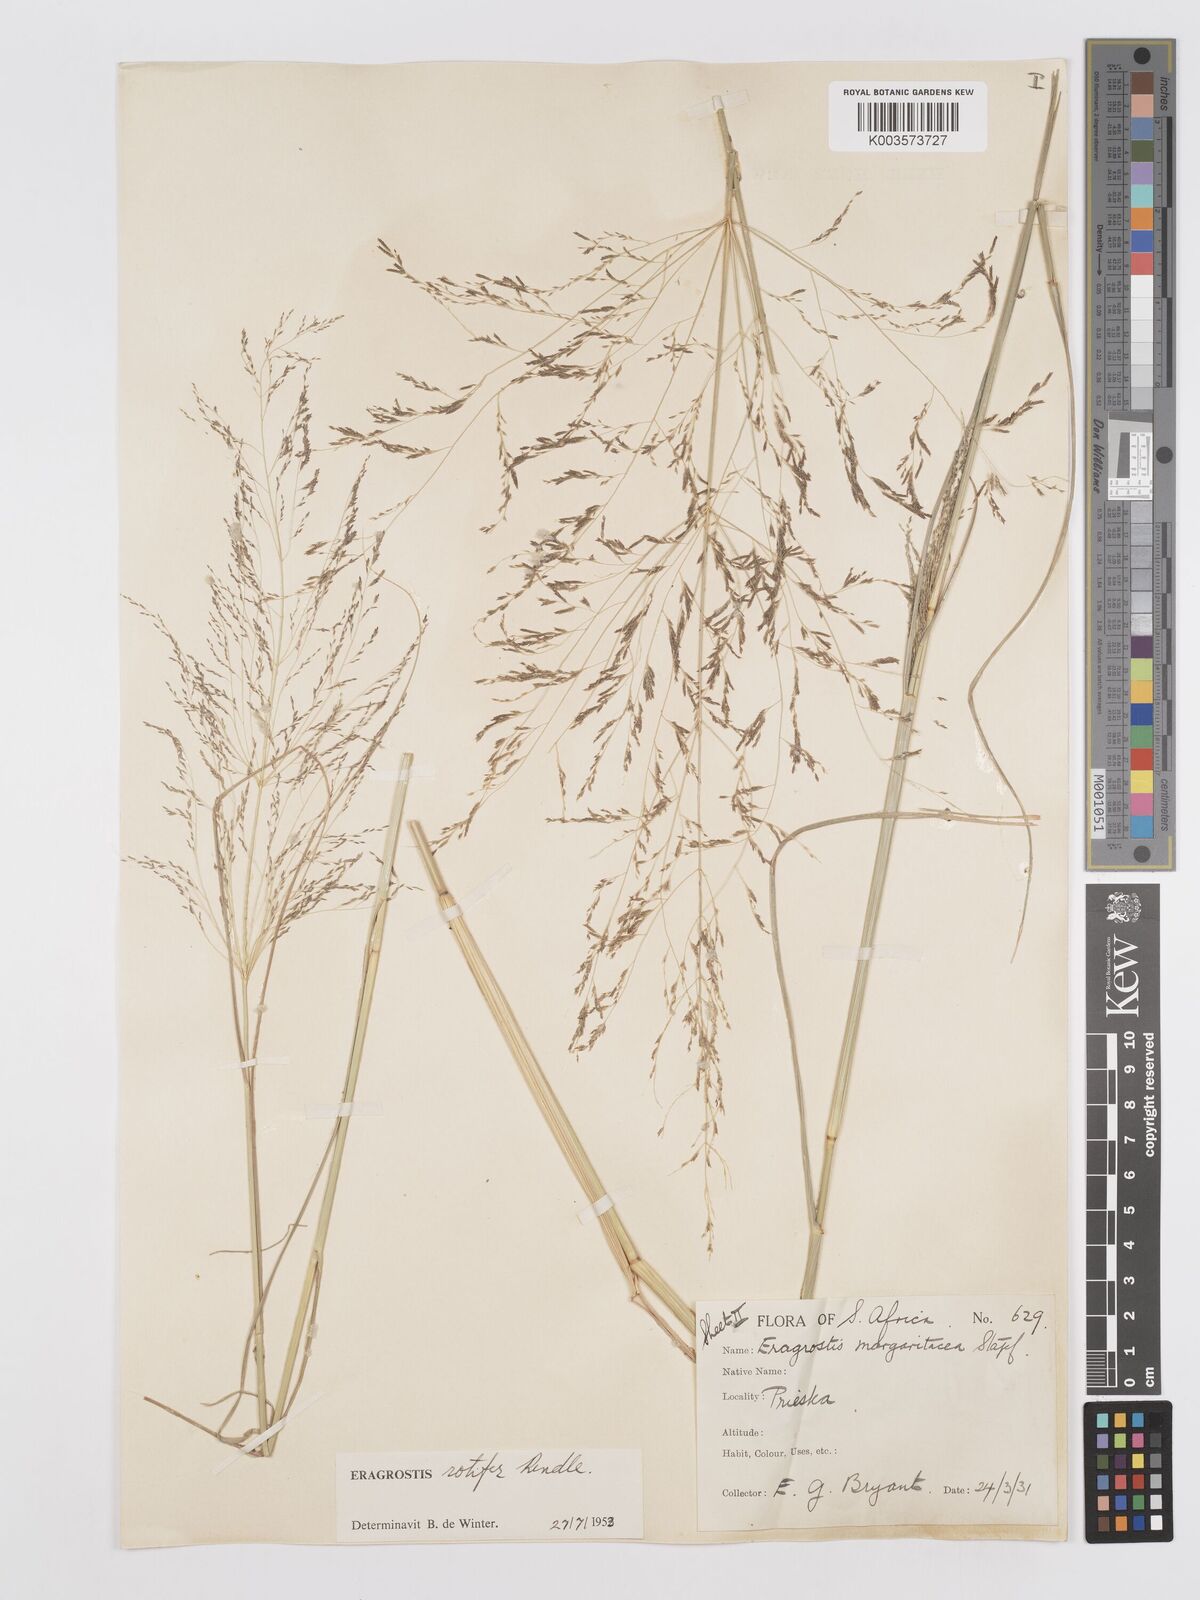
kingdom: Plantae
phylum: Tracheophyta
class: Liliopsida
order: Poales
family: Poaceae
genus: Eragrostis
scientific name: Eragrostis rotifer
